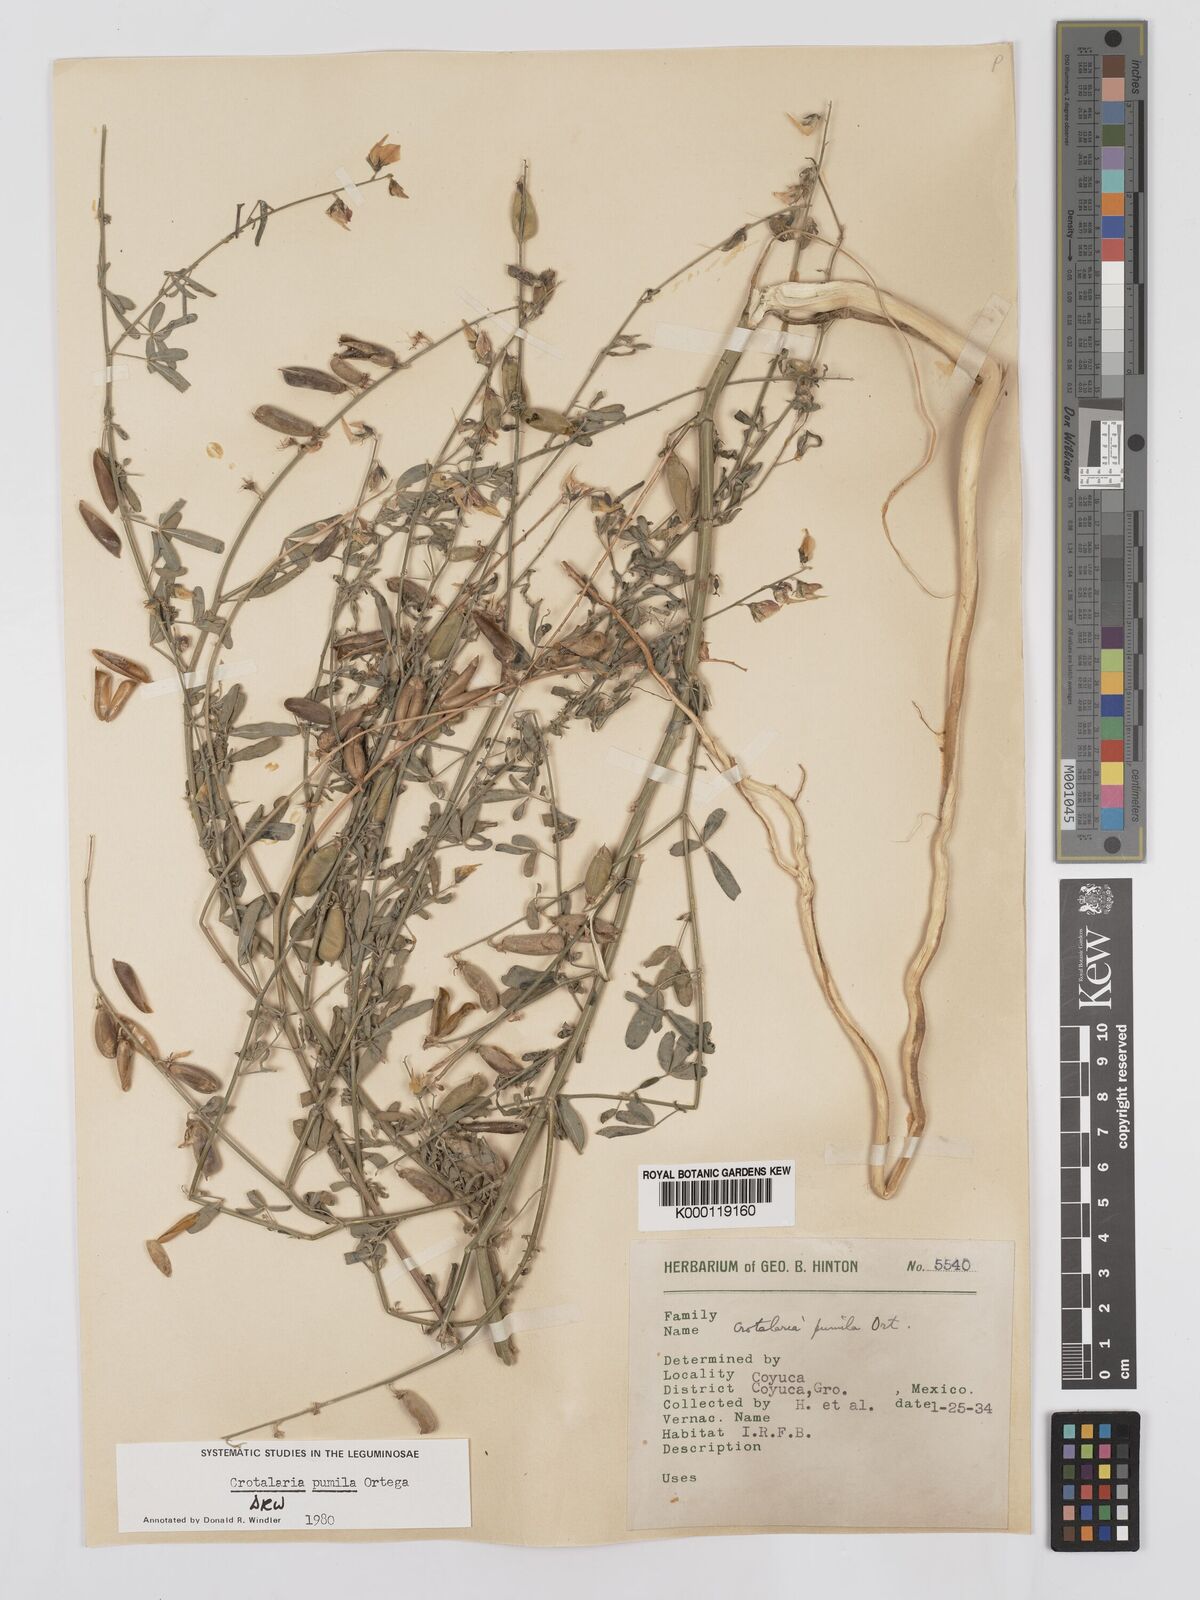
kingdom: Plantae
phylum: Tracheophyta
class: Magnoliopsida
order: Fabales
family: Fabaceae
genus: Crotalaria
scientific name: Crotalaria pumila
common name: Low rattlebox
